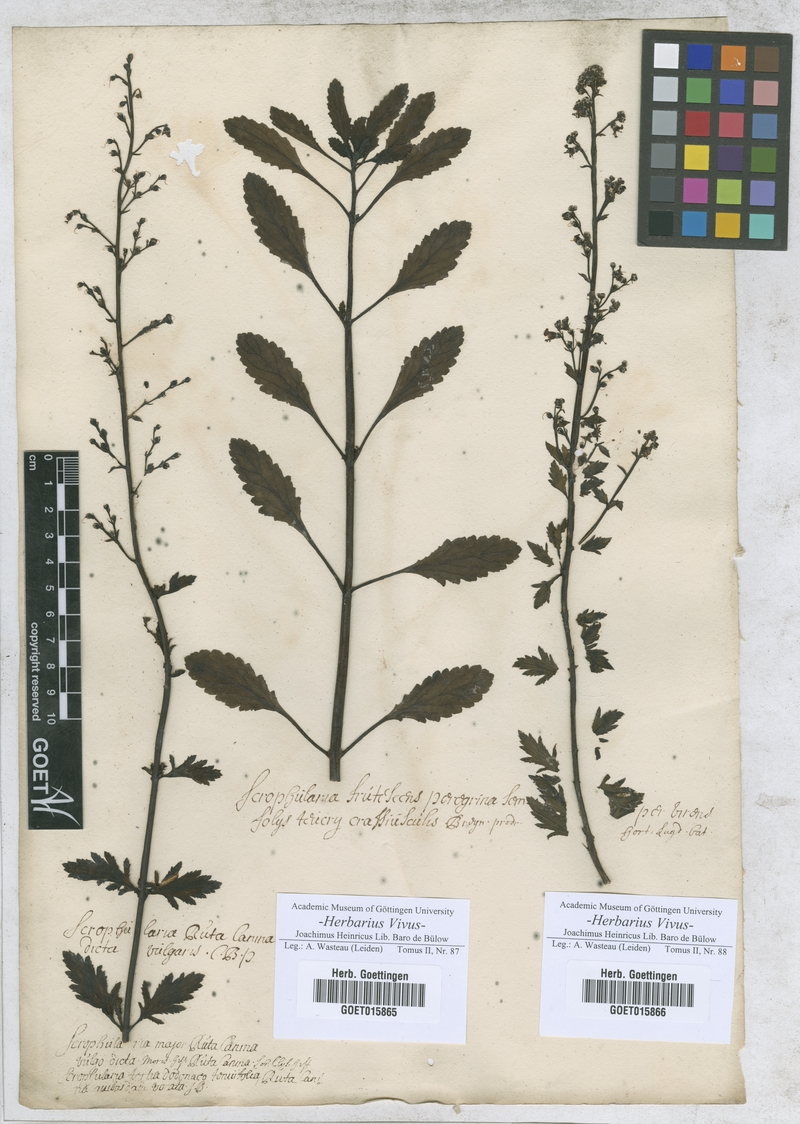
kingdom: Plantae
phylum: Tracheophyta
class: Magnoliopsida
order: Lamiales
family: Scrophulariaceae
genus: Scrophularia
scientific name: Scrophularia canina
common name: French figwort
